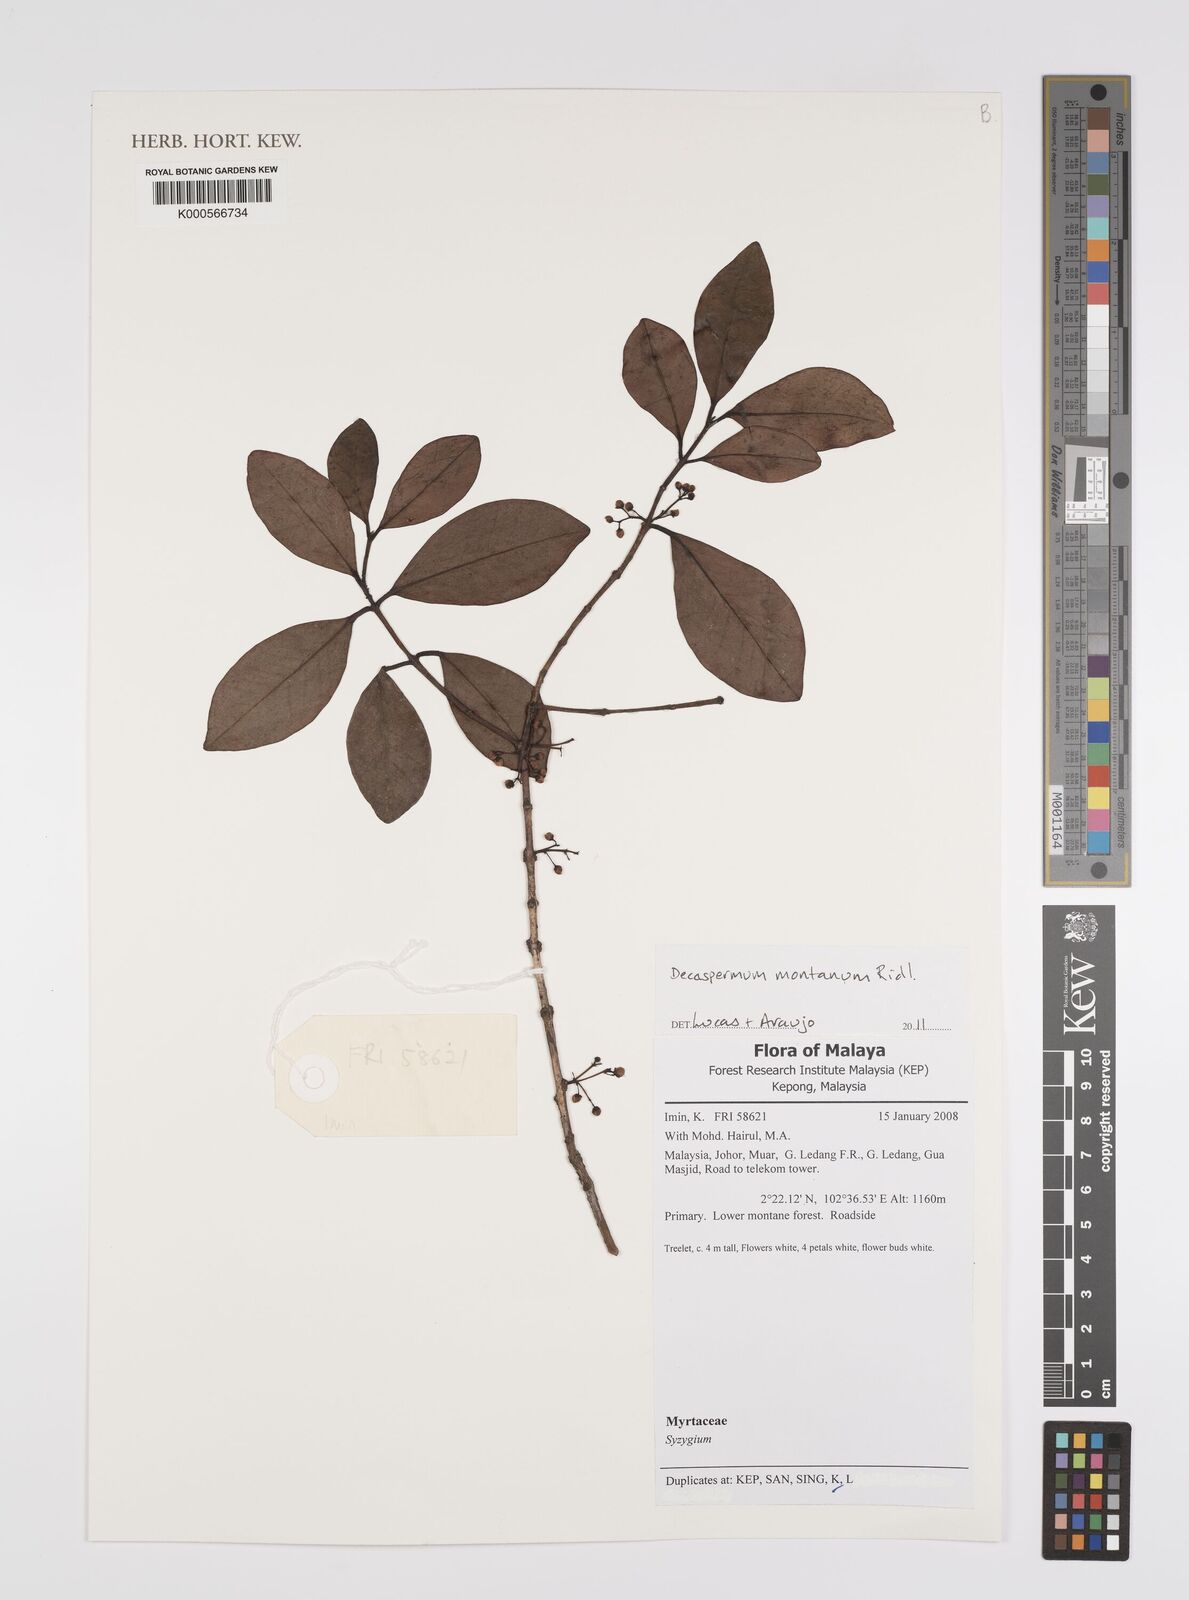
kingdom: Plantae
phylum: Tracheophyta
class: Magnoliopsida
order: Myrtales
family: Myrtaceae
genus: Decaspermum
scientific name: Decaspermum montanum
